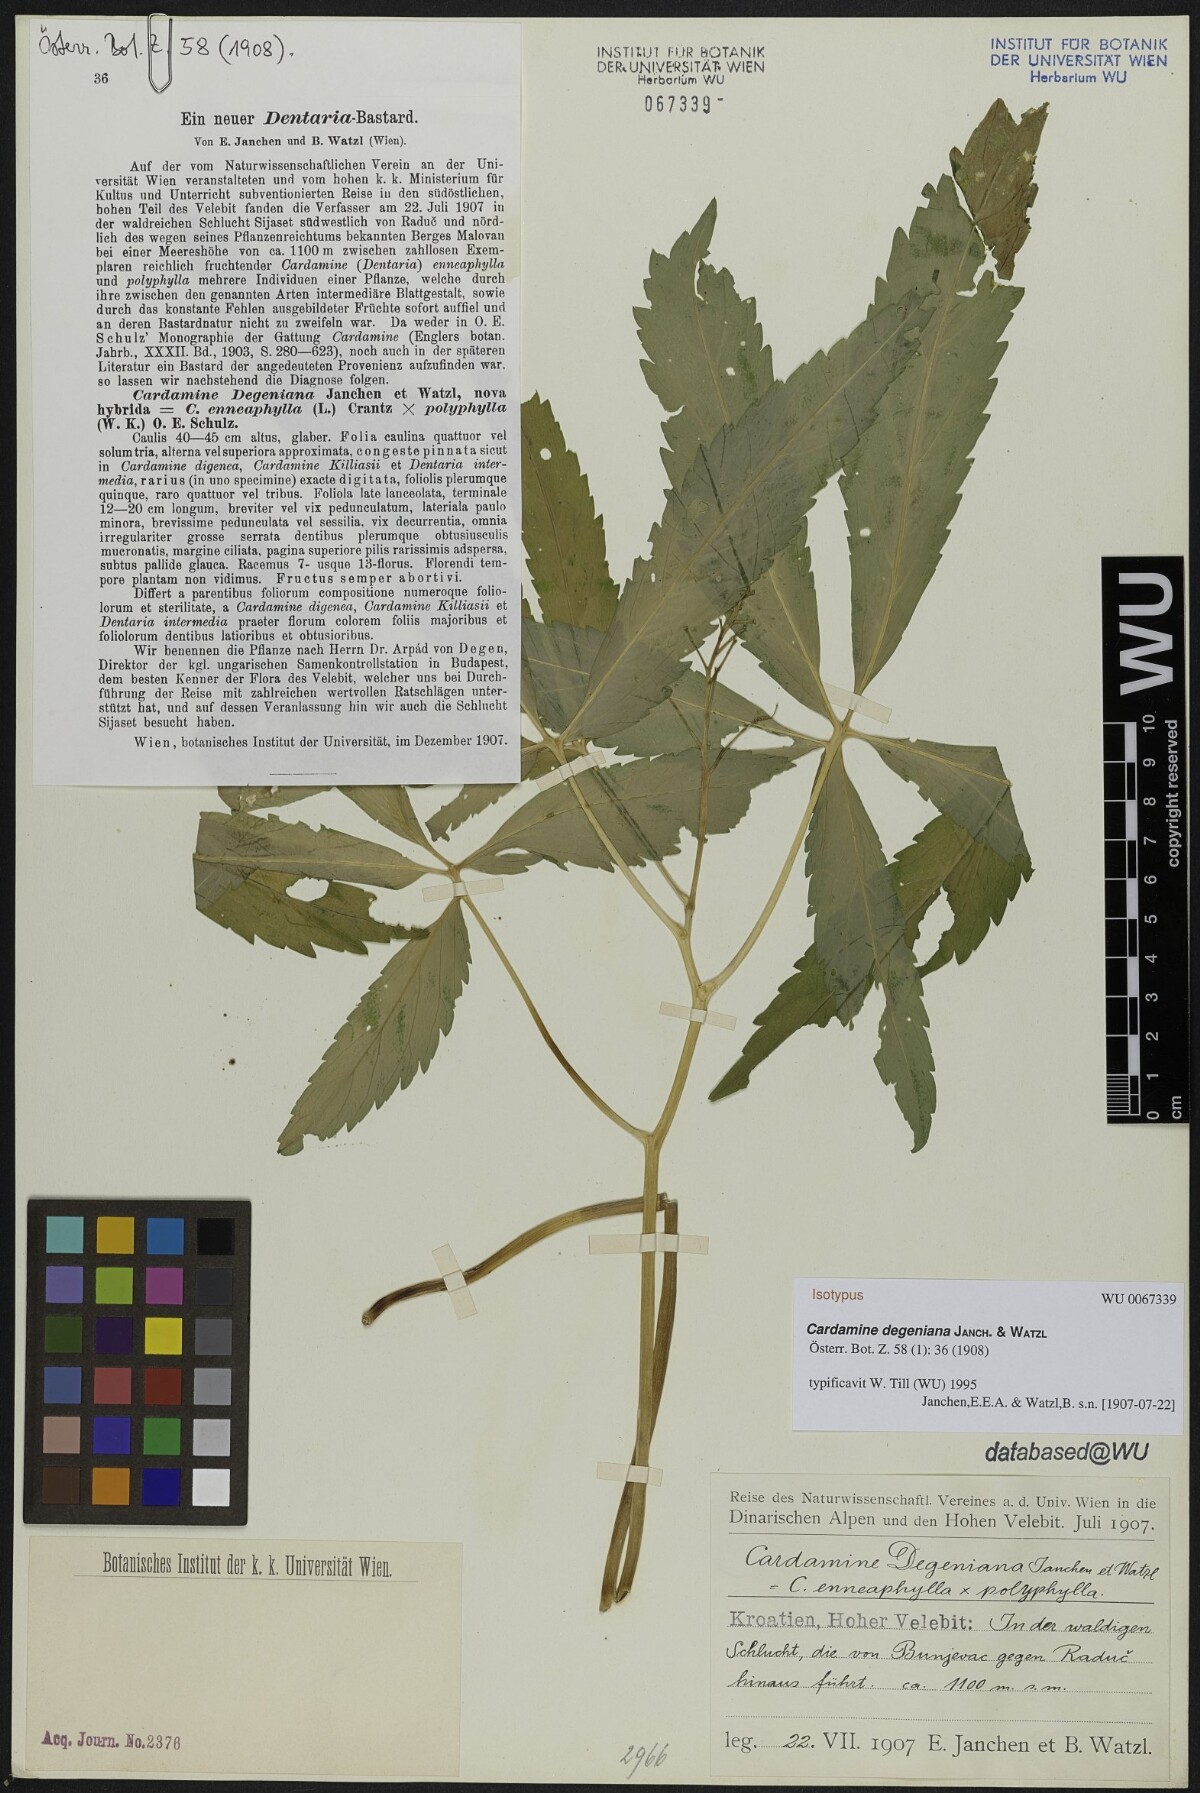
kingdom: Plantae
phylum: Tracheophyta
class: Magnoliopsida
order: Brassicales
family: Brassicaceae
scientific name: Brassicaceae
